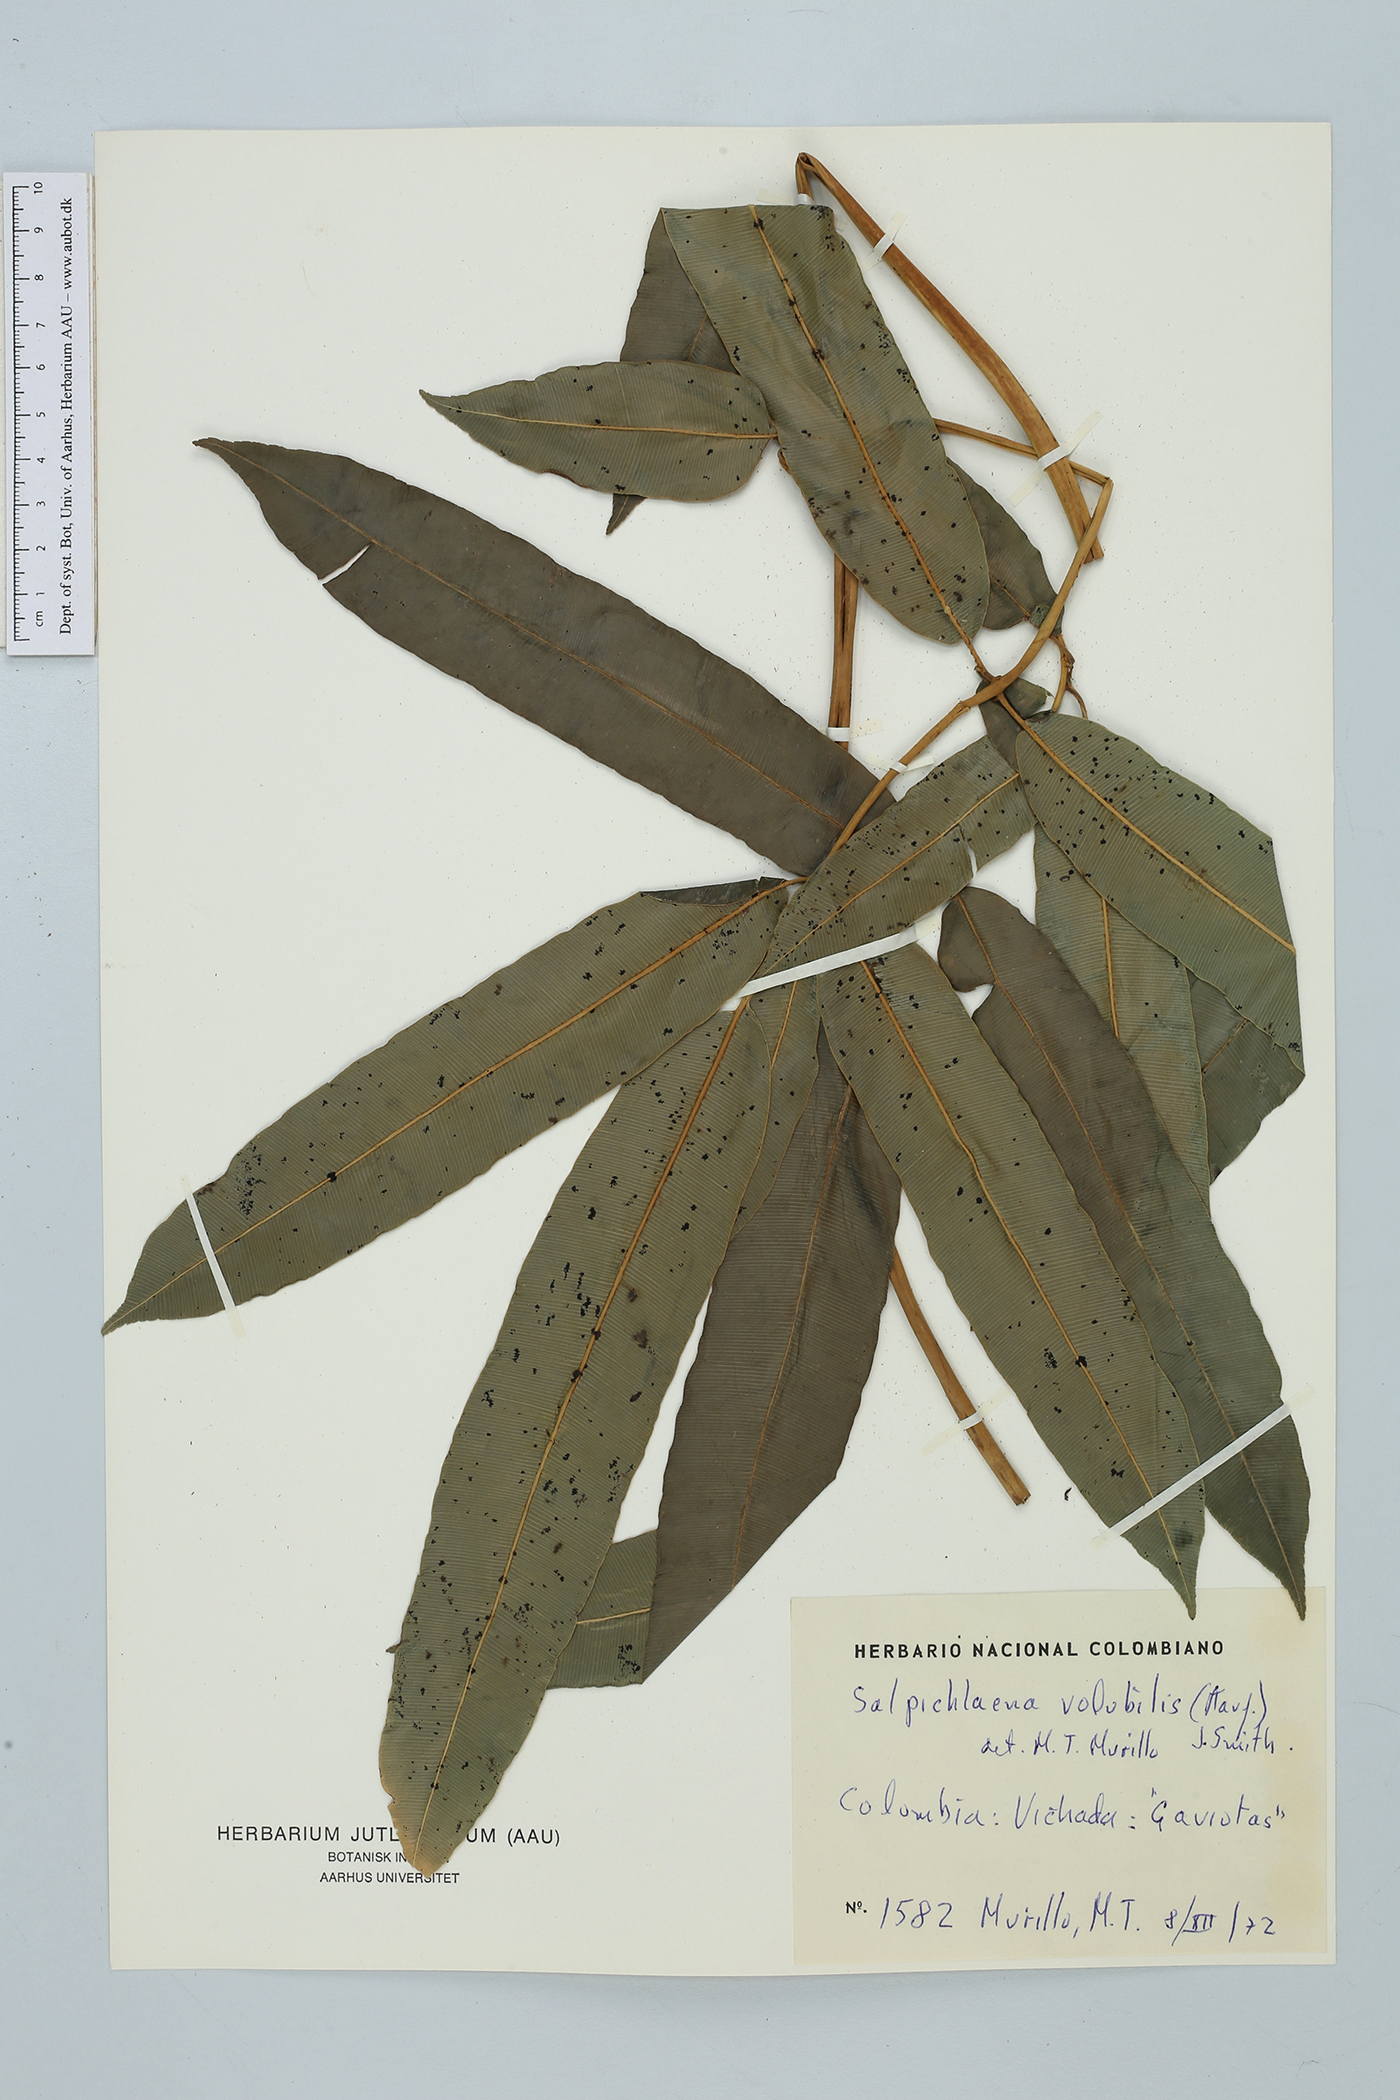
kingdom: Plantae
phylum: Tracheophyta
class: Polypodiopsida
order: Polypodiales
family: Blechnaceae
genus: Salpichlaena
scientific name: Salpichlaena hookeriana
